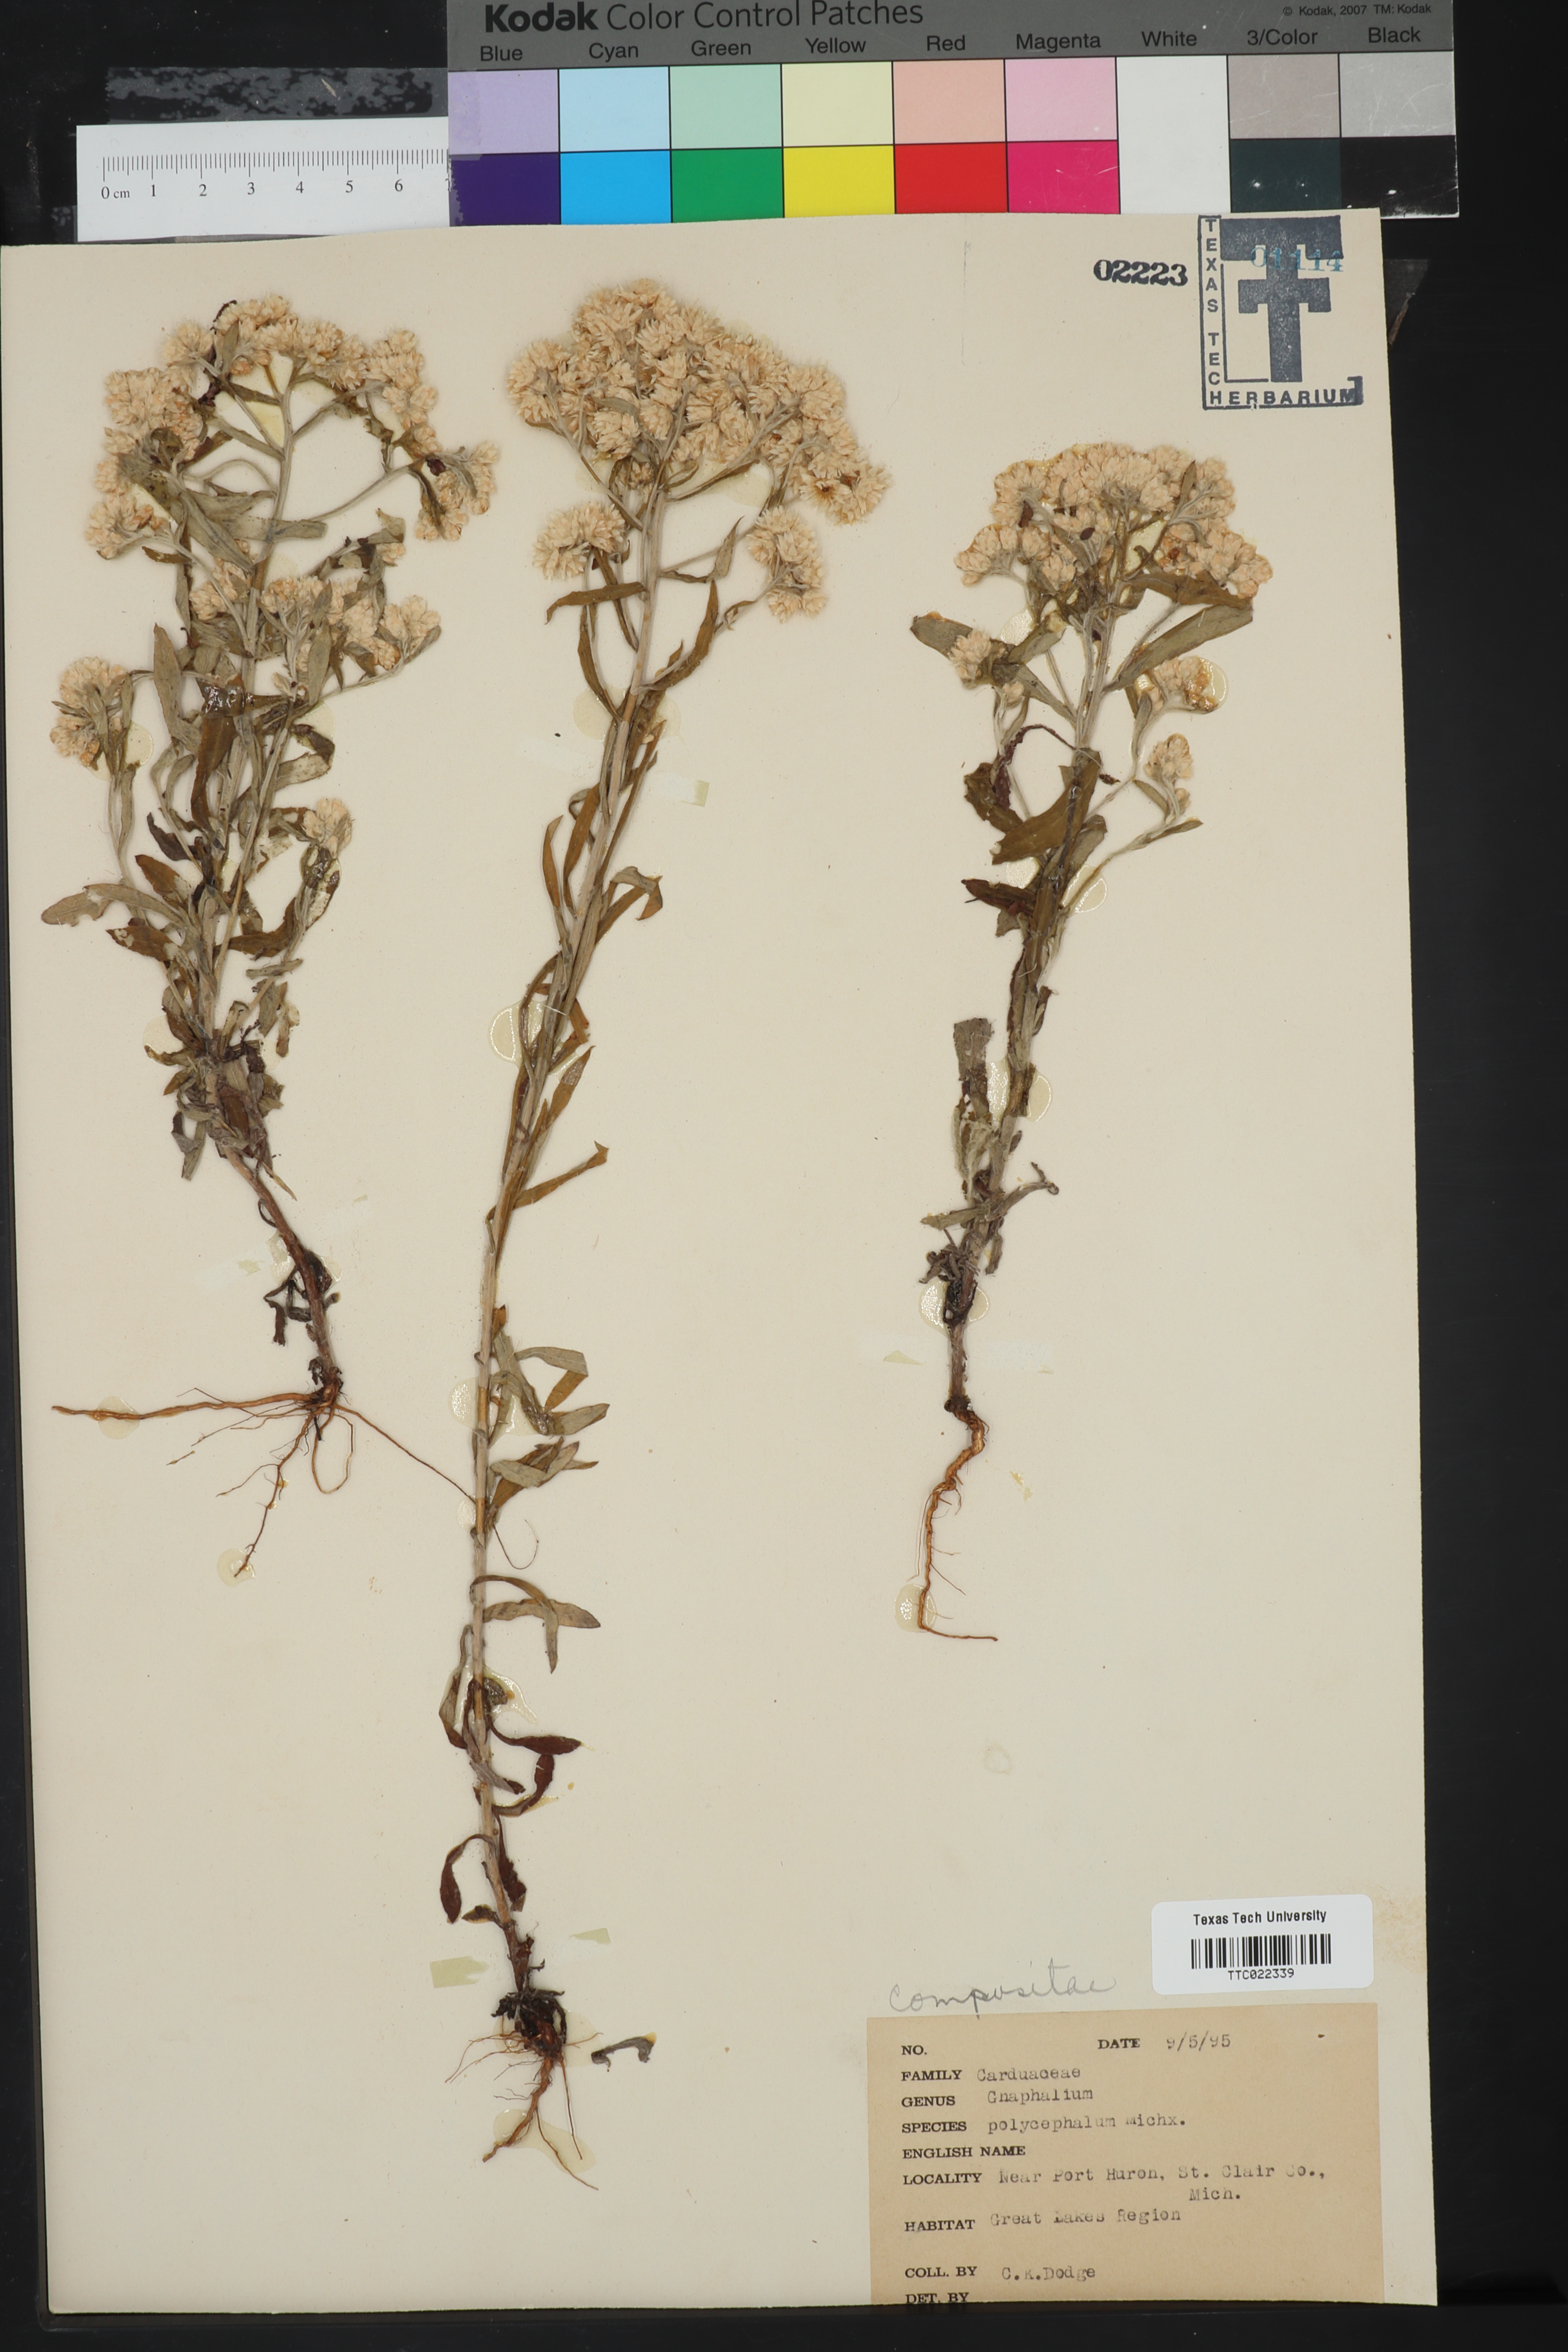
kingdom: Plantae
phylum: Tracheophyta
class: Magnoliopsida
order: Asterales
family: Asteraceae
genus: Helichrysum
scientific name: Helichrysum nodiflorum
